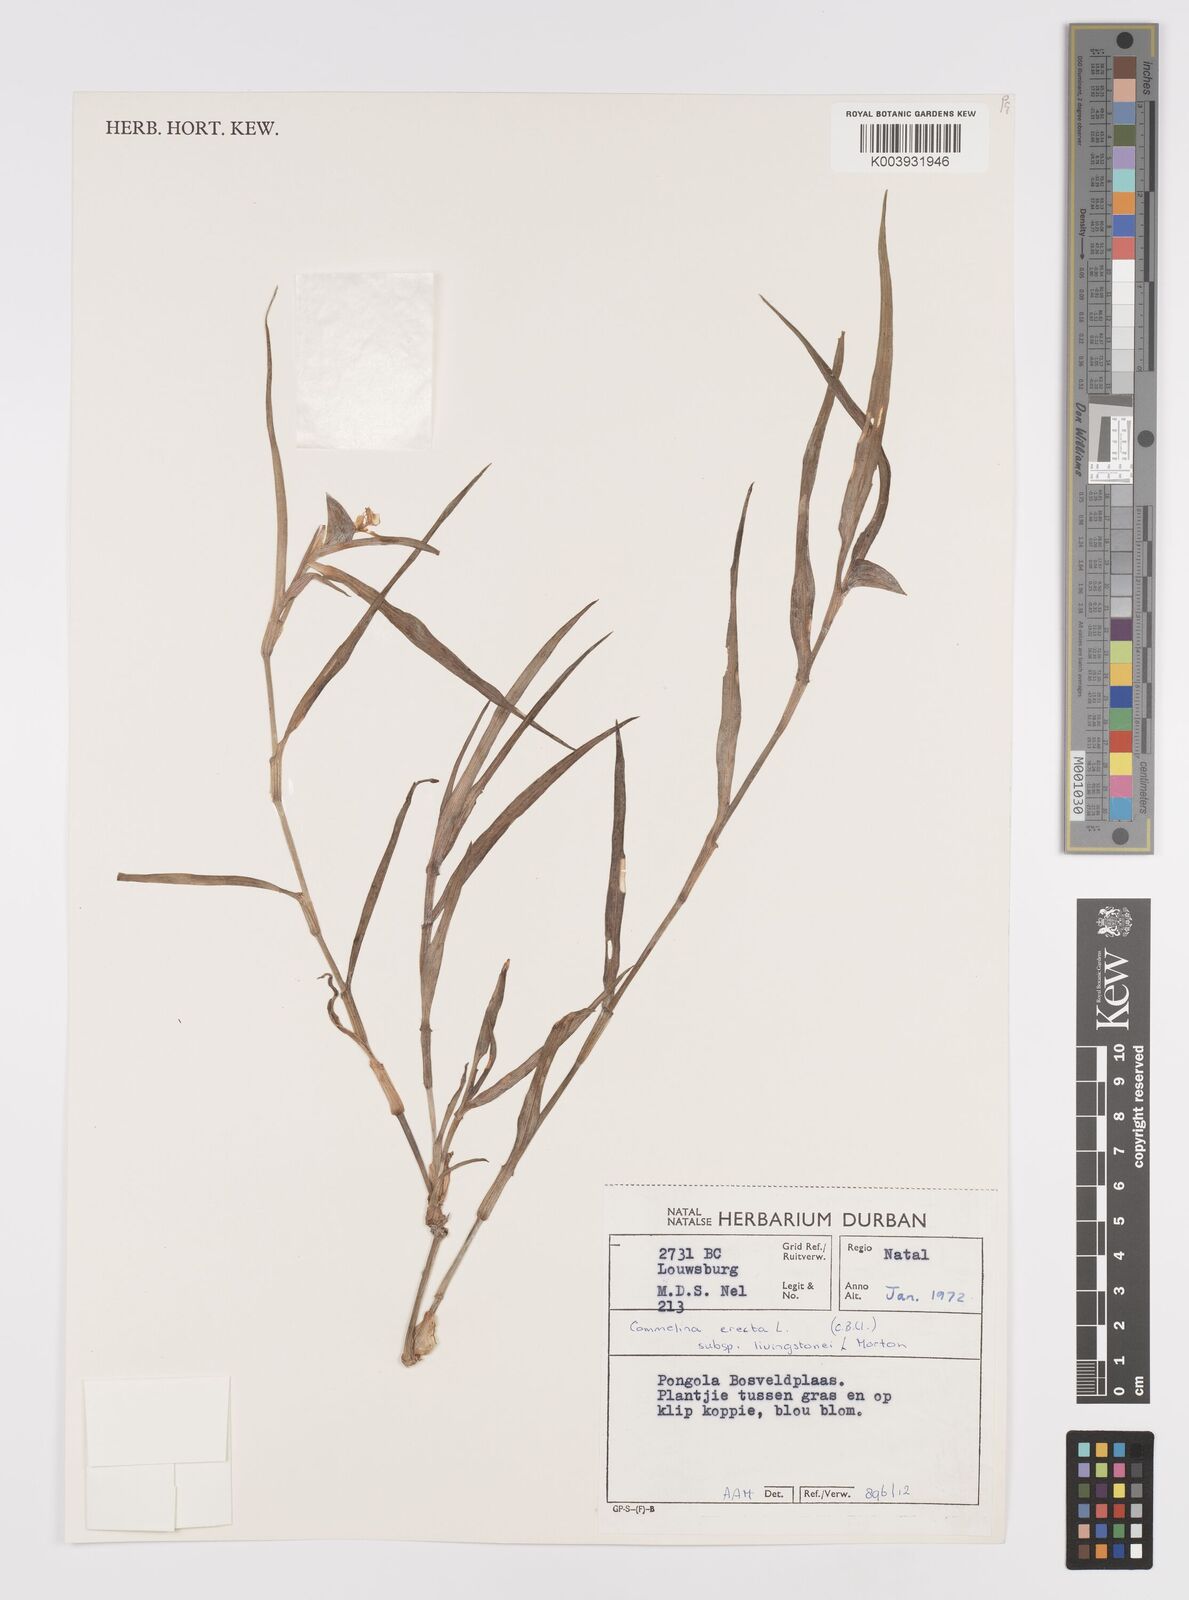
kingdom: Plantae
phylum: Tracheophyta
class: Liliopsida
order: Commelinales
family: Commelinaceae
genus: Commelina
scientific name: Commelina erecta
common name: Blousel blommetjie
